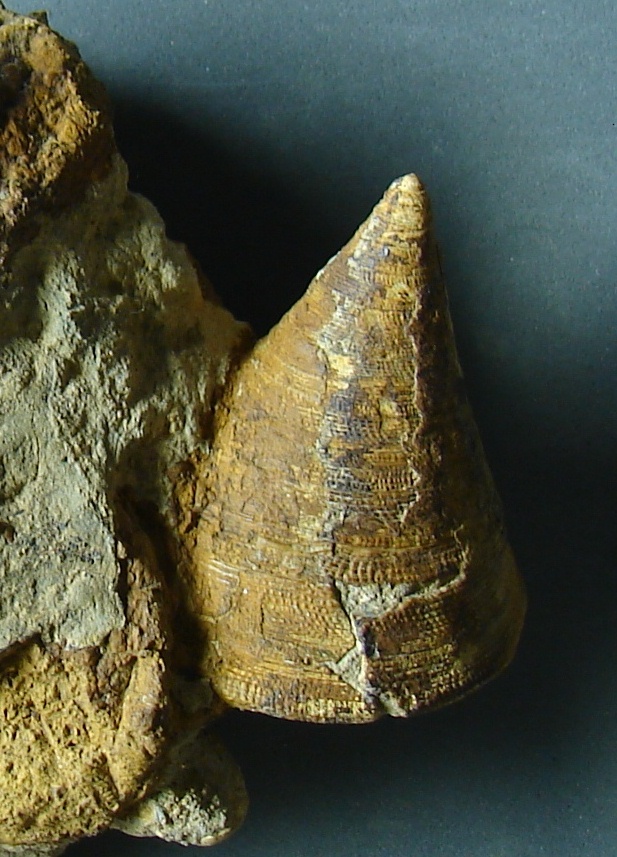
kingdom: Animalia
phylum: Mollusca
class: Gastropoda
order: Pleurotomariida
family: Pleurotomariidae
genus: Leptomaria
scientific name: Leptomaria Trochus punctatus
